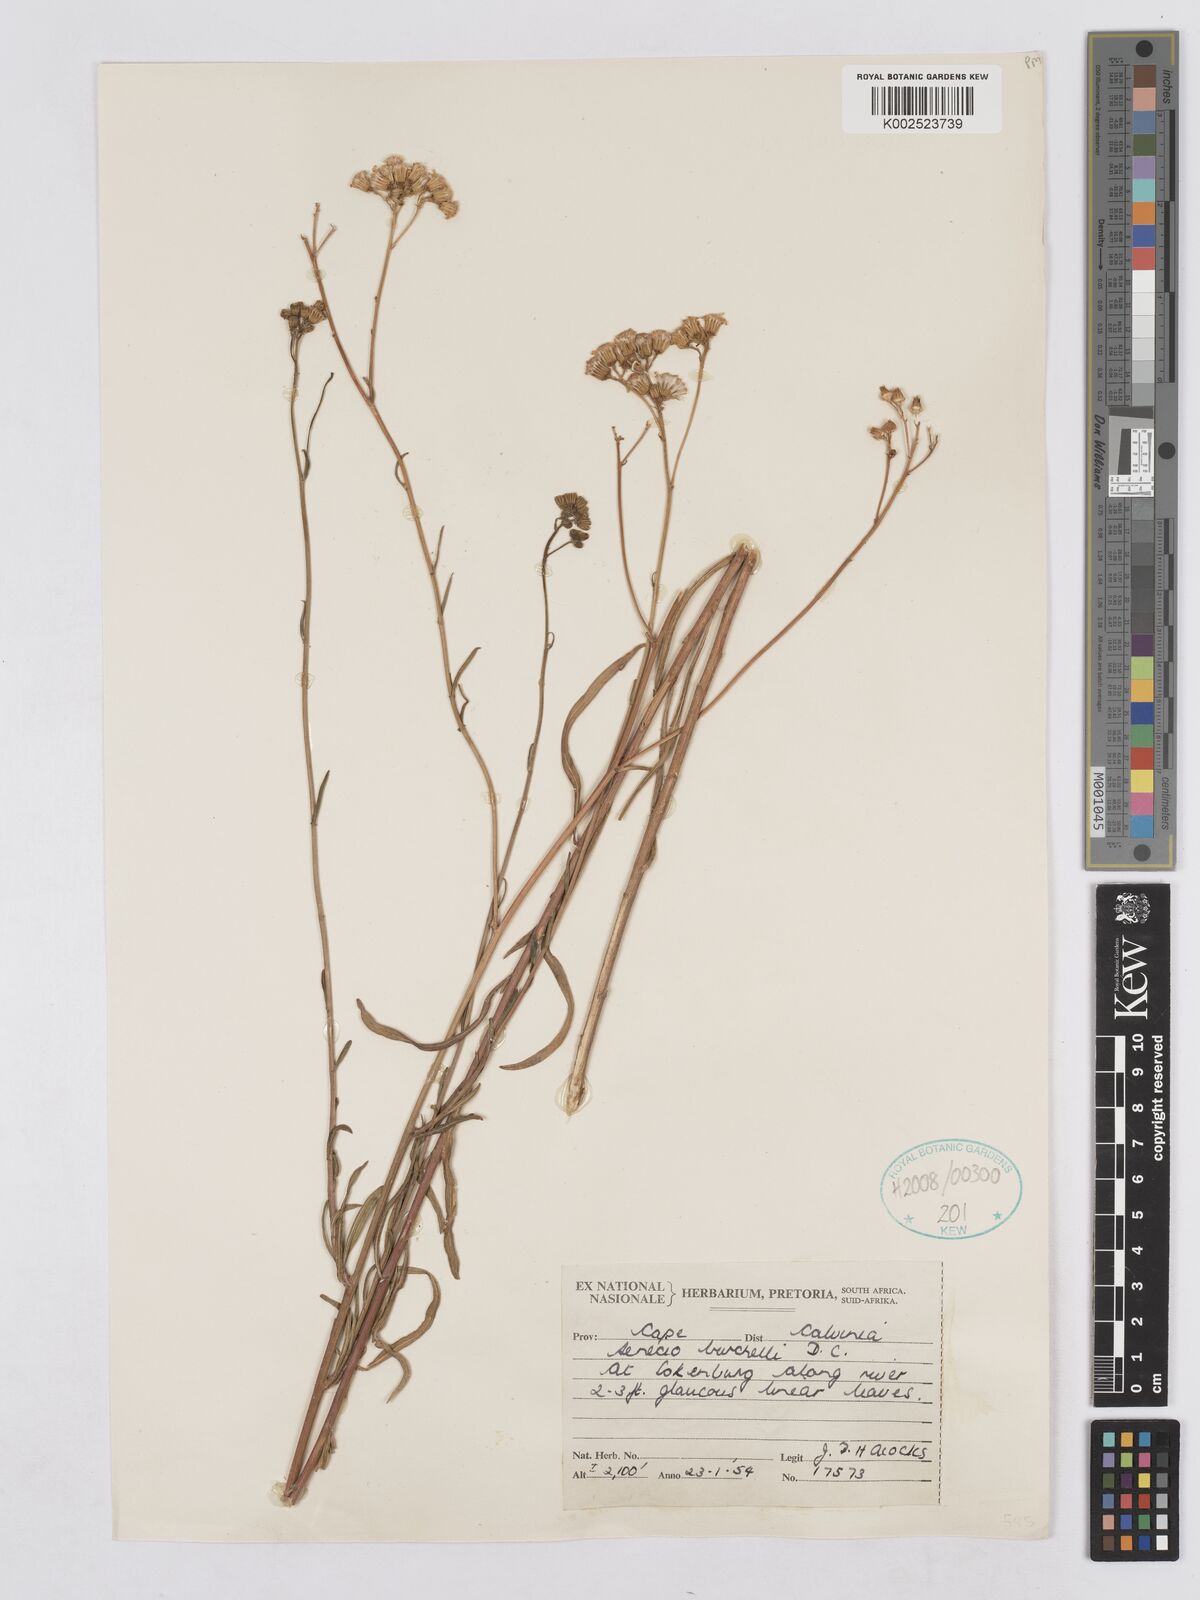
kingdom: Plantae
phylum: Tracheophyta
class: Magnoliopsida
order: Asterales
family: Asteraceae
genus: Senecio
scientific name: Senecio burchellii
